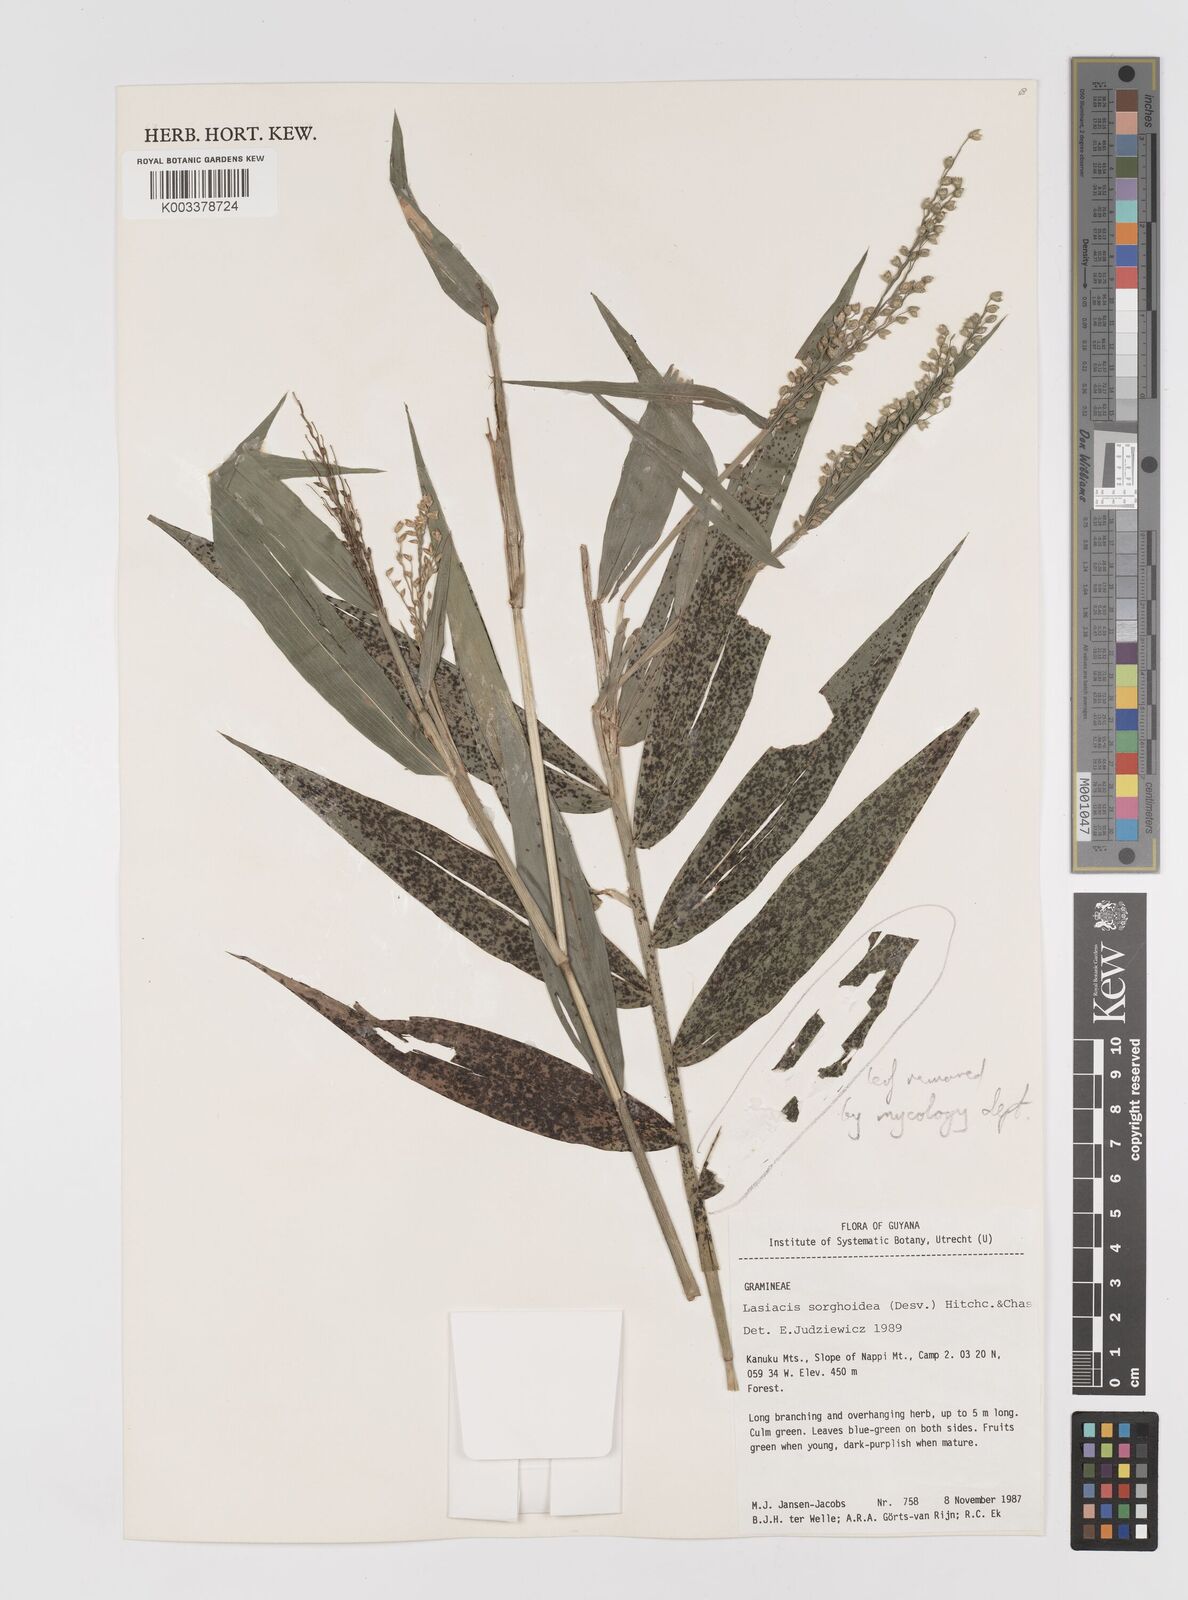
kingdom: Plantae
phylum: Tracheophyta
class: Liliopsida
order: Poales
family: Poaceae
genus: Lasiacis
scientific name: Lasiacis maculata
